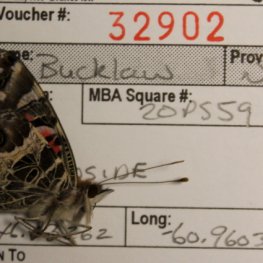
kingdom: Animalia
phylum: Arthropoda
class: Insecta
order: Lepidoptera
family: Nymphalidae
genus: Vanessa
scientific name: Vanessa virginiensis
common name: American Lady
